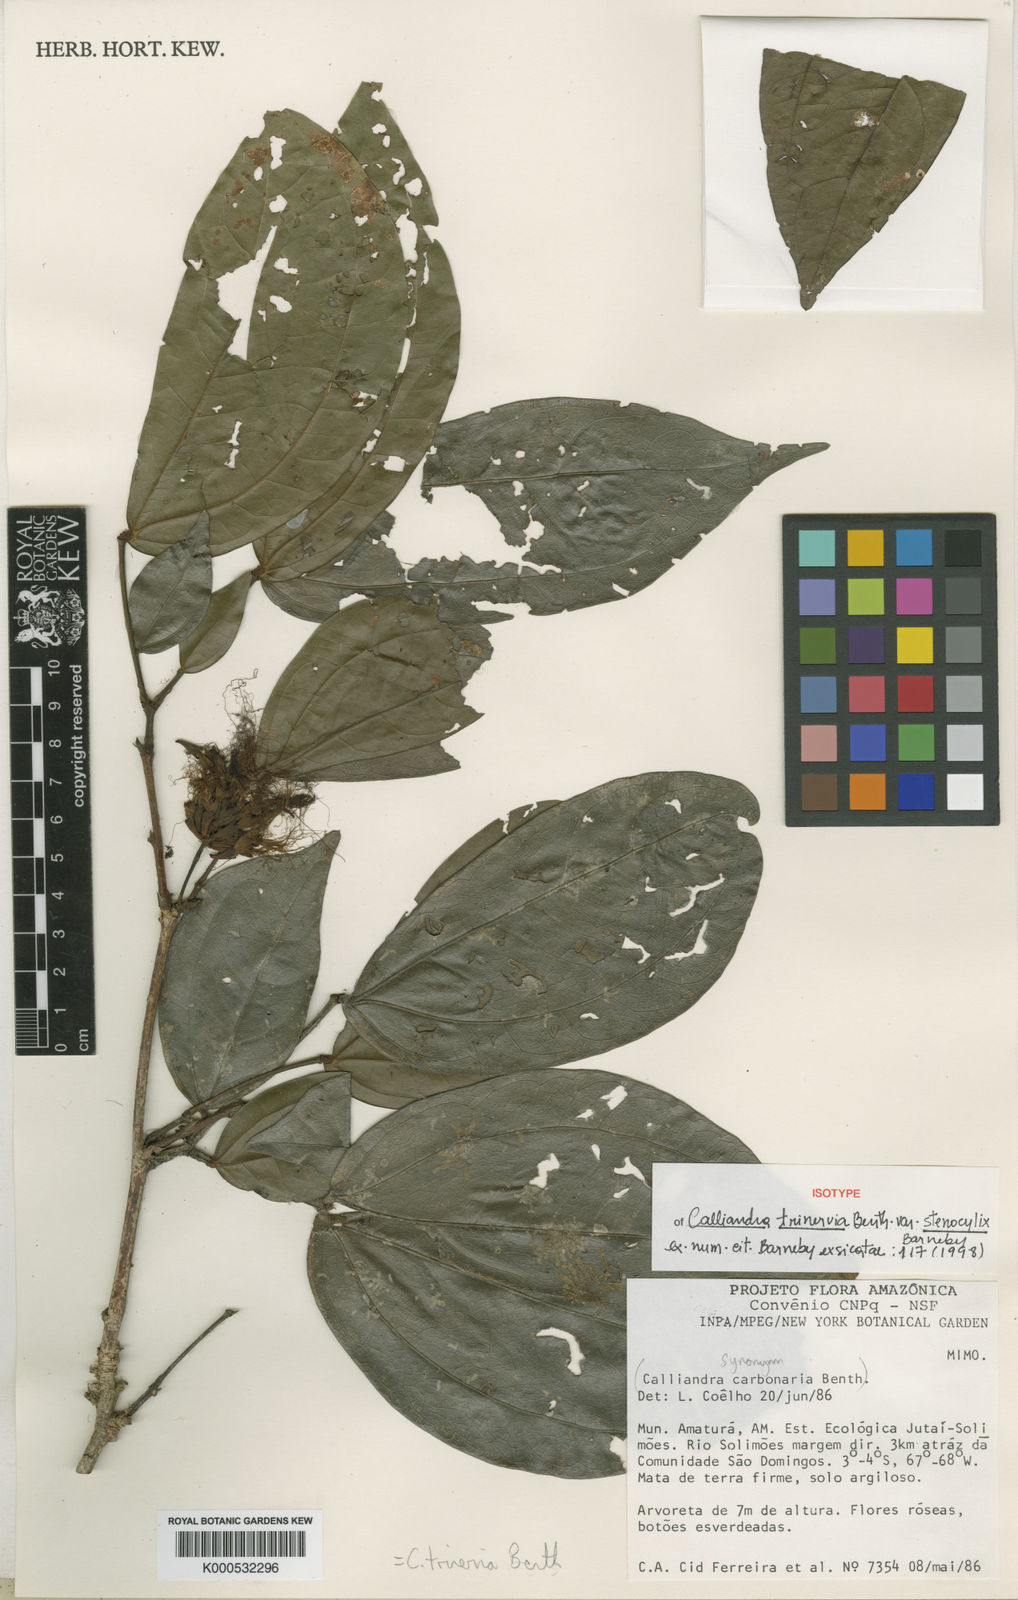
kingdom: Plantae
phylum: Tracheophyta
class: Magnoliopsida
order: Fabales
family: Fabaceae
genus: Calliandra
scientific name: Calliandra trinervia
